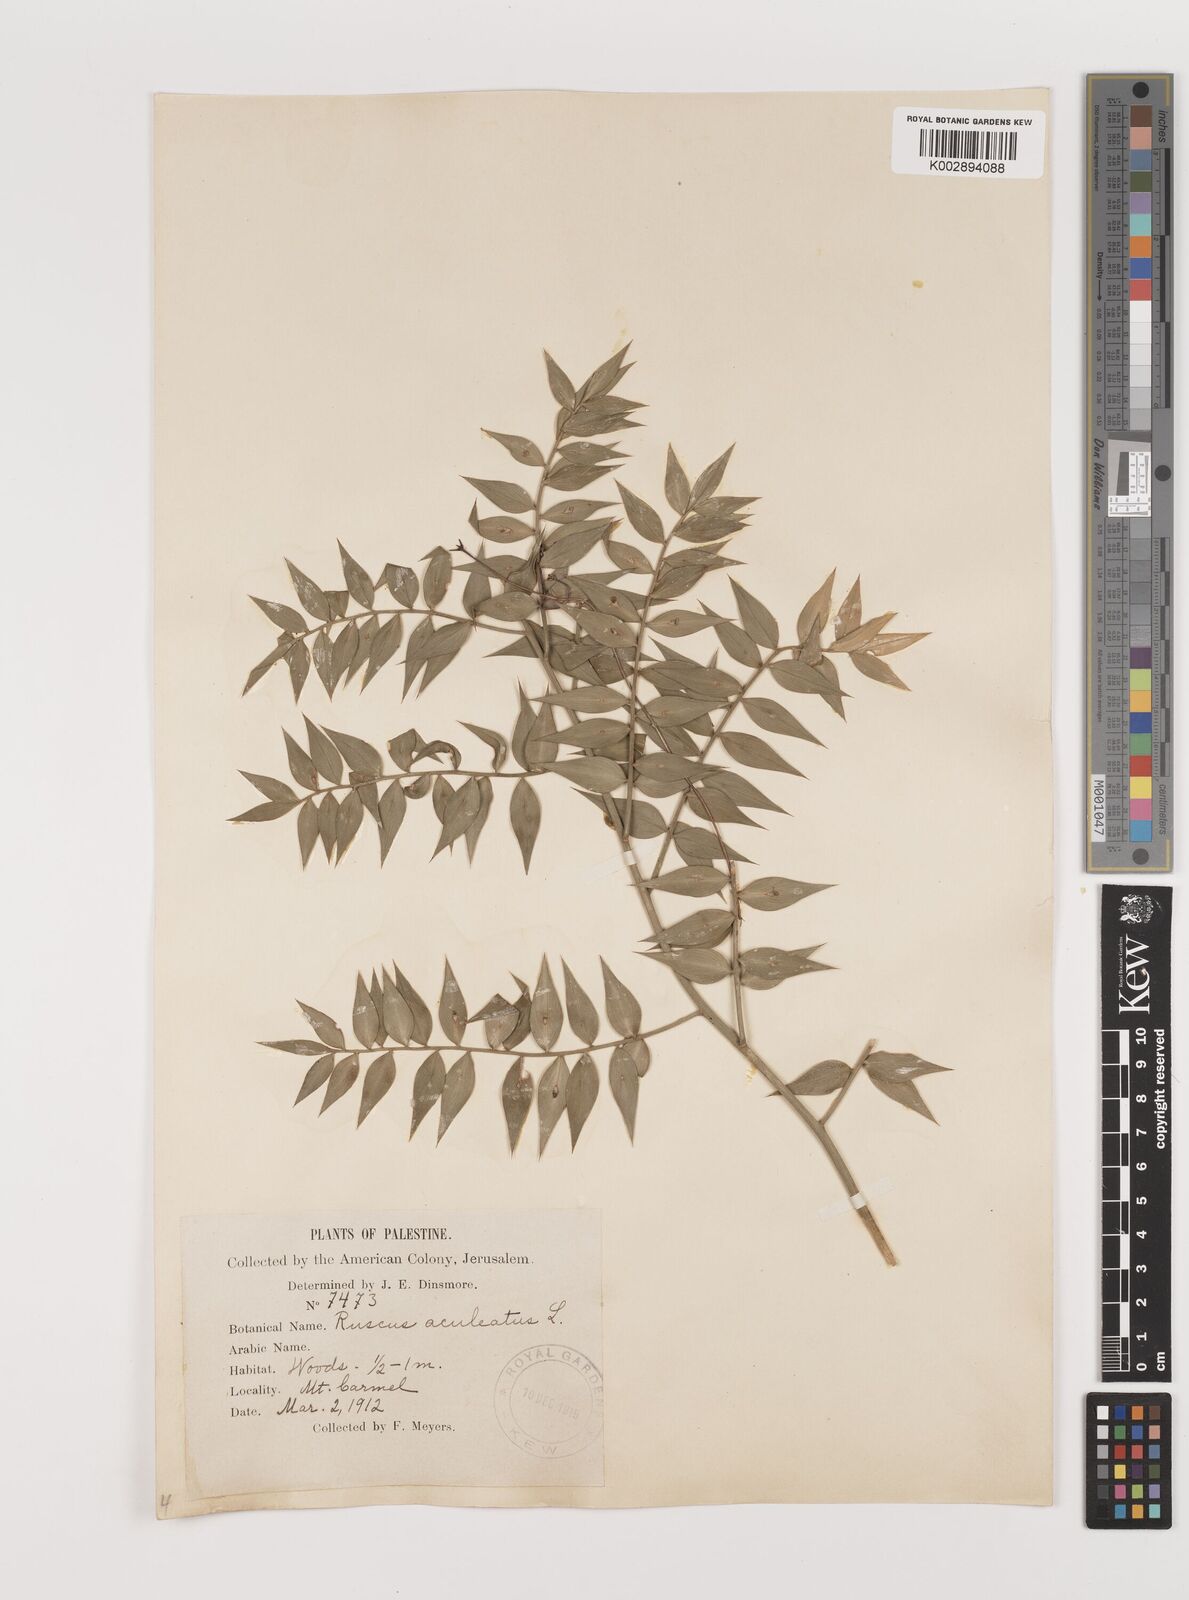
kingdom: Plantae
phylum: Tracheophyta
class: Liliopsida
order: Asparagales
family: Asparagaceae
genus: Ruscus
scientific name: Ruscus aculeatus
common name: Butcher's-broom
